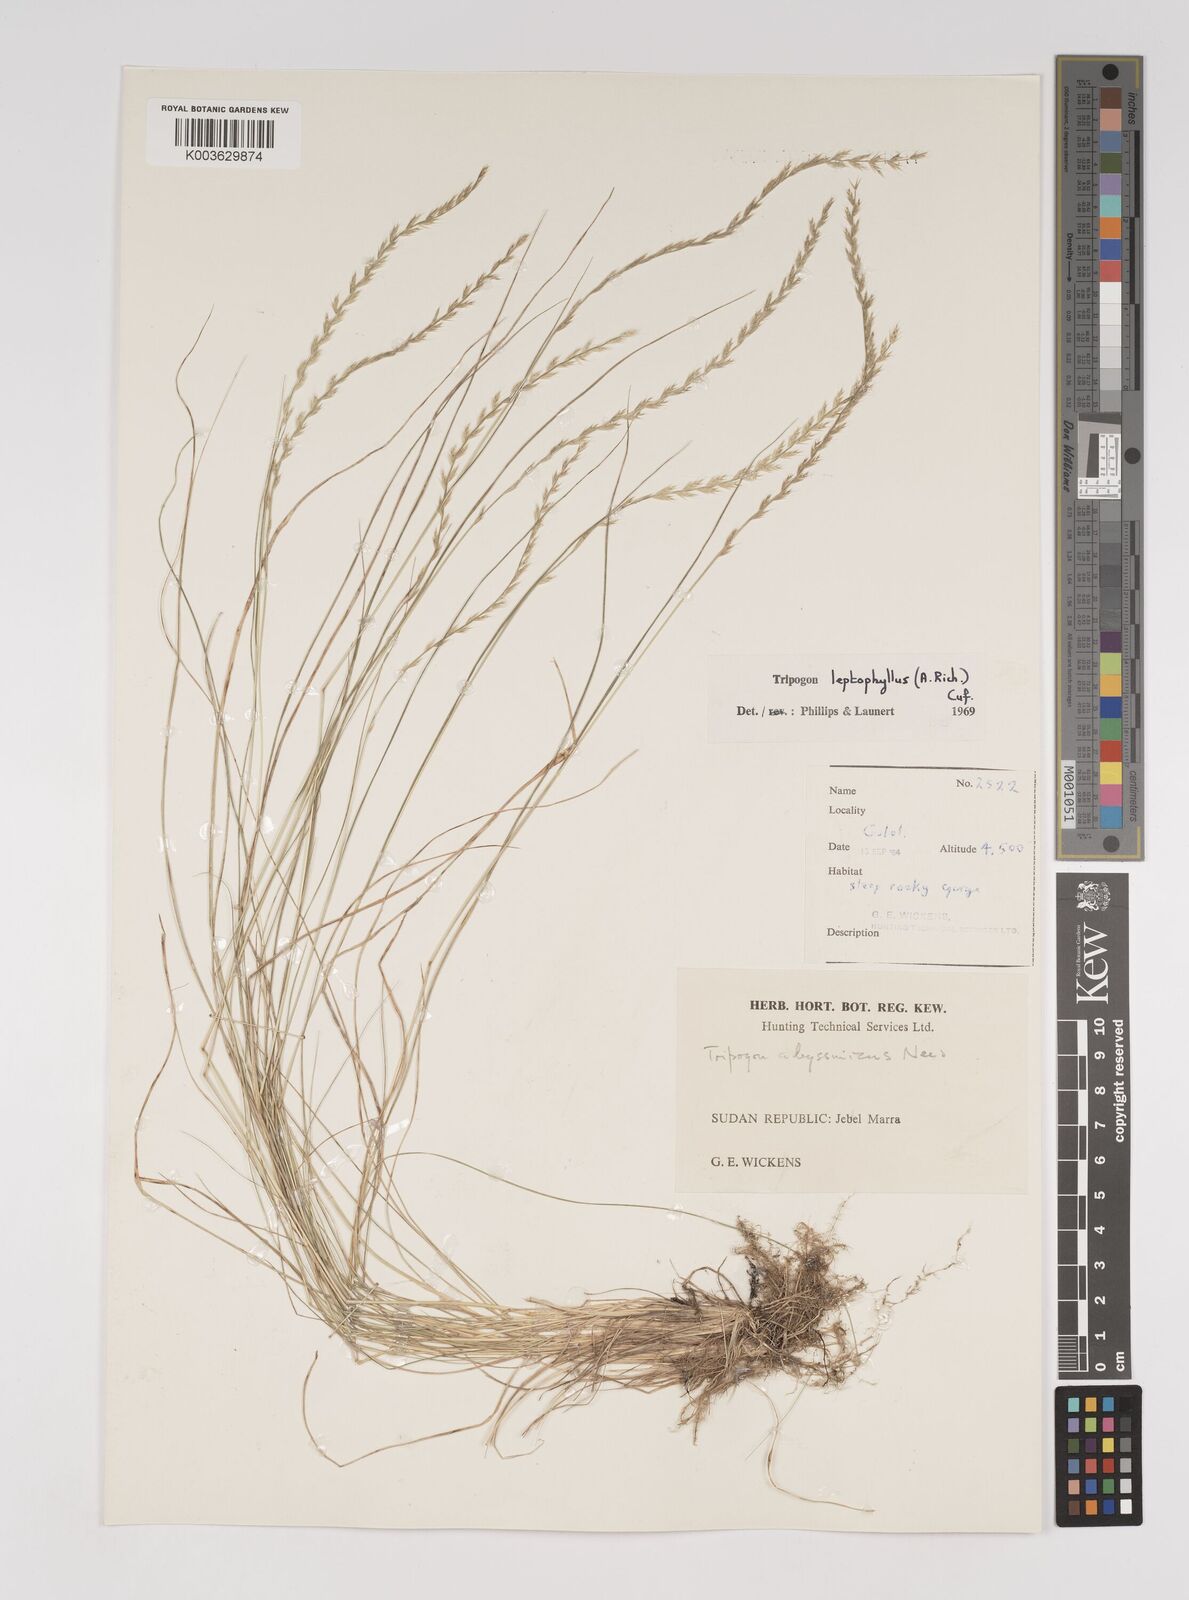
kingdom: Plantae
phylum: Tracheophyta
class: Liliopsida
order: Poales
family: Poaceae
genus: Tripogon
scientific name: Tripogon leptophyllus
